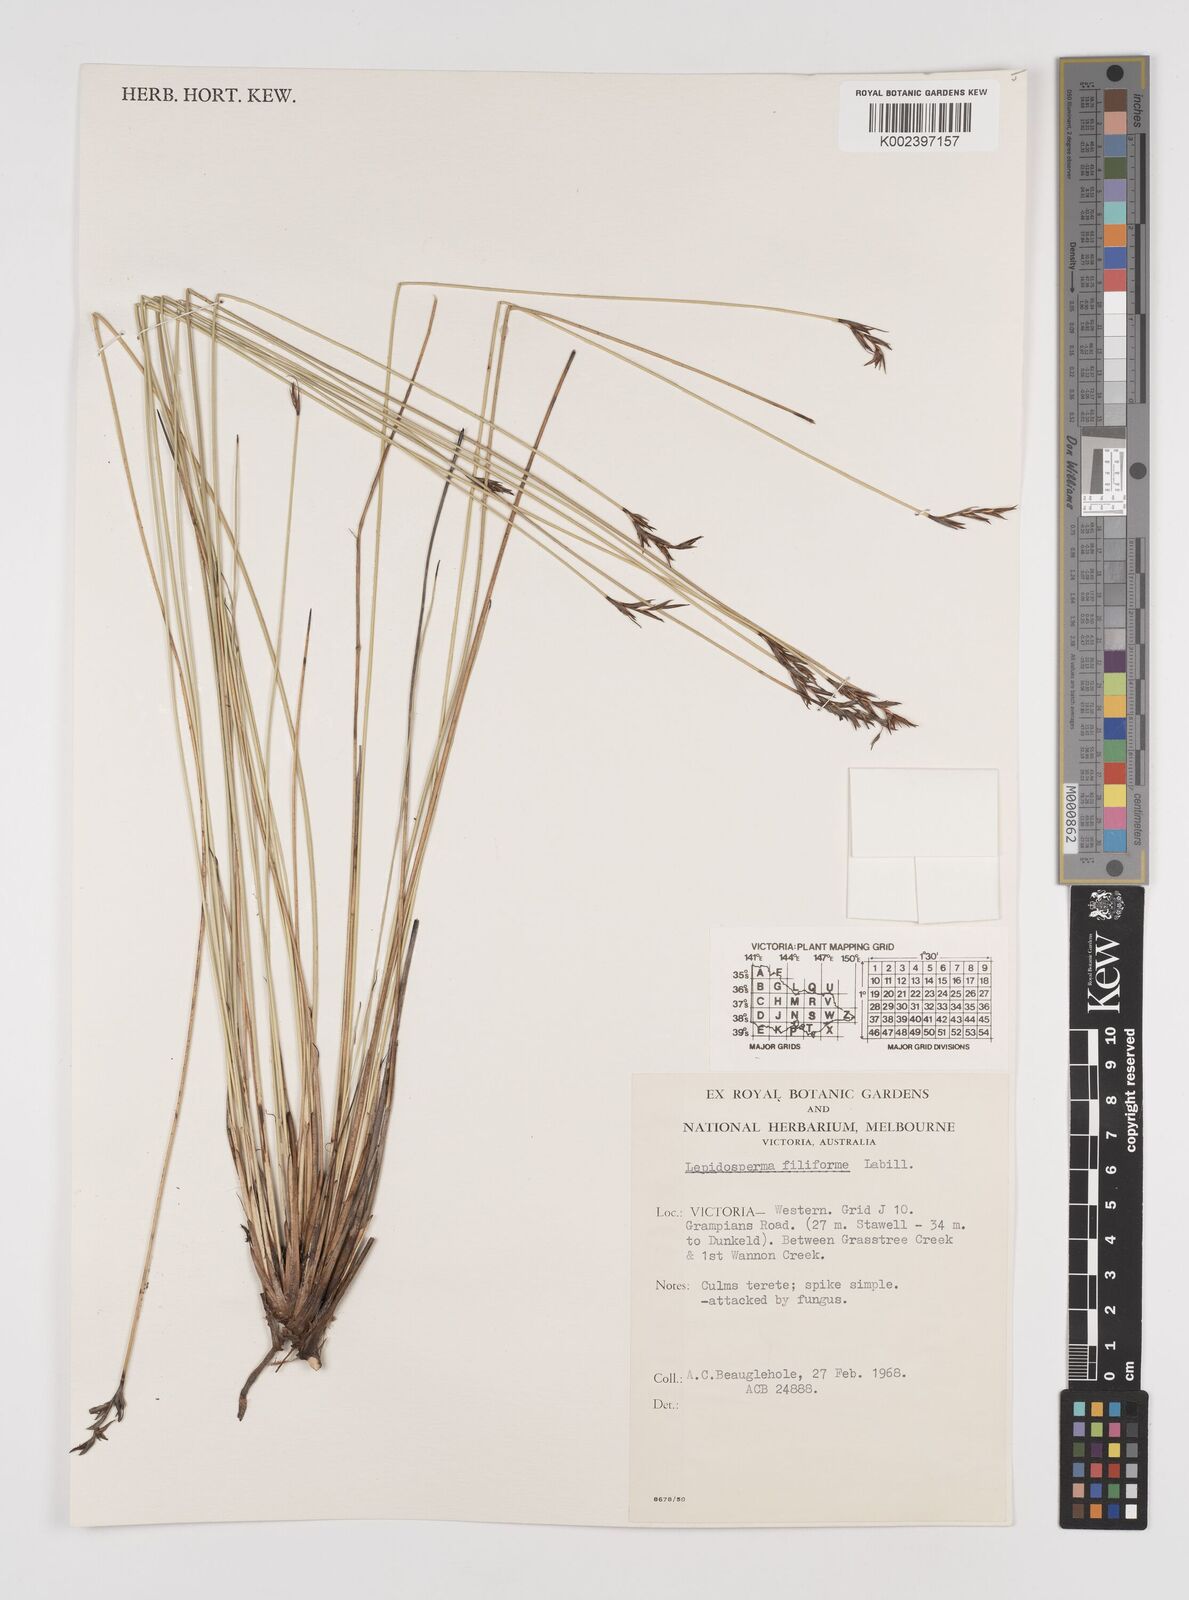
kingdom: Plantae
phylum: Tracheophyta
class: Liliopsida
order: Poales
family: Cyperaceae
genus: Lepidosperma
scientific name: Lepidosperma filiforme
